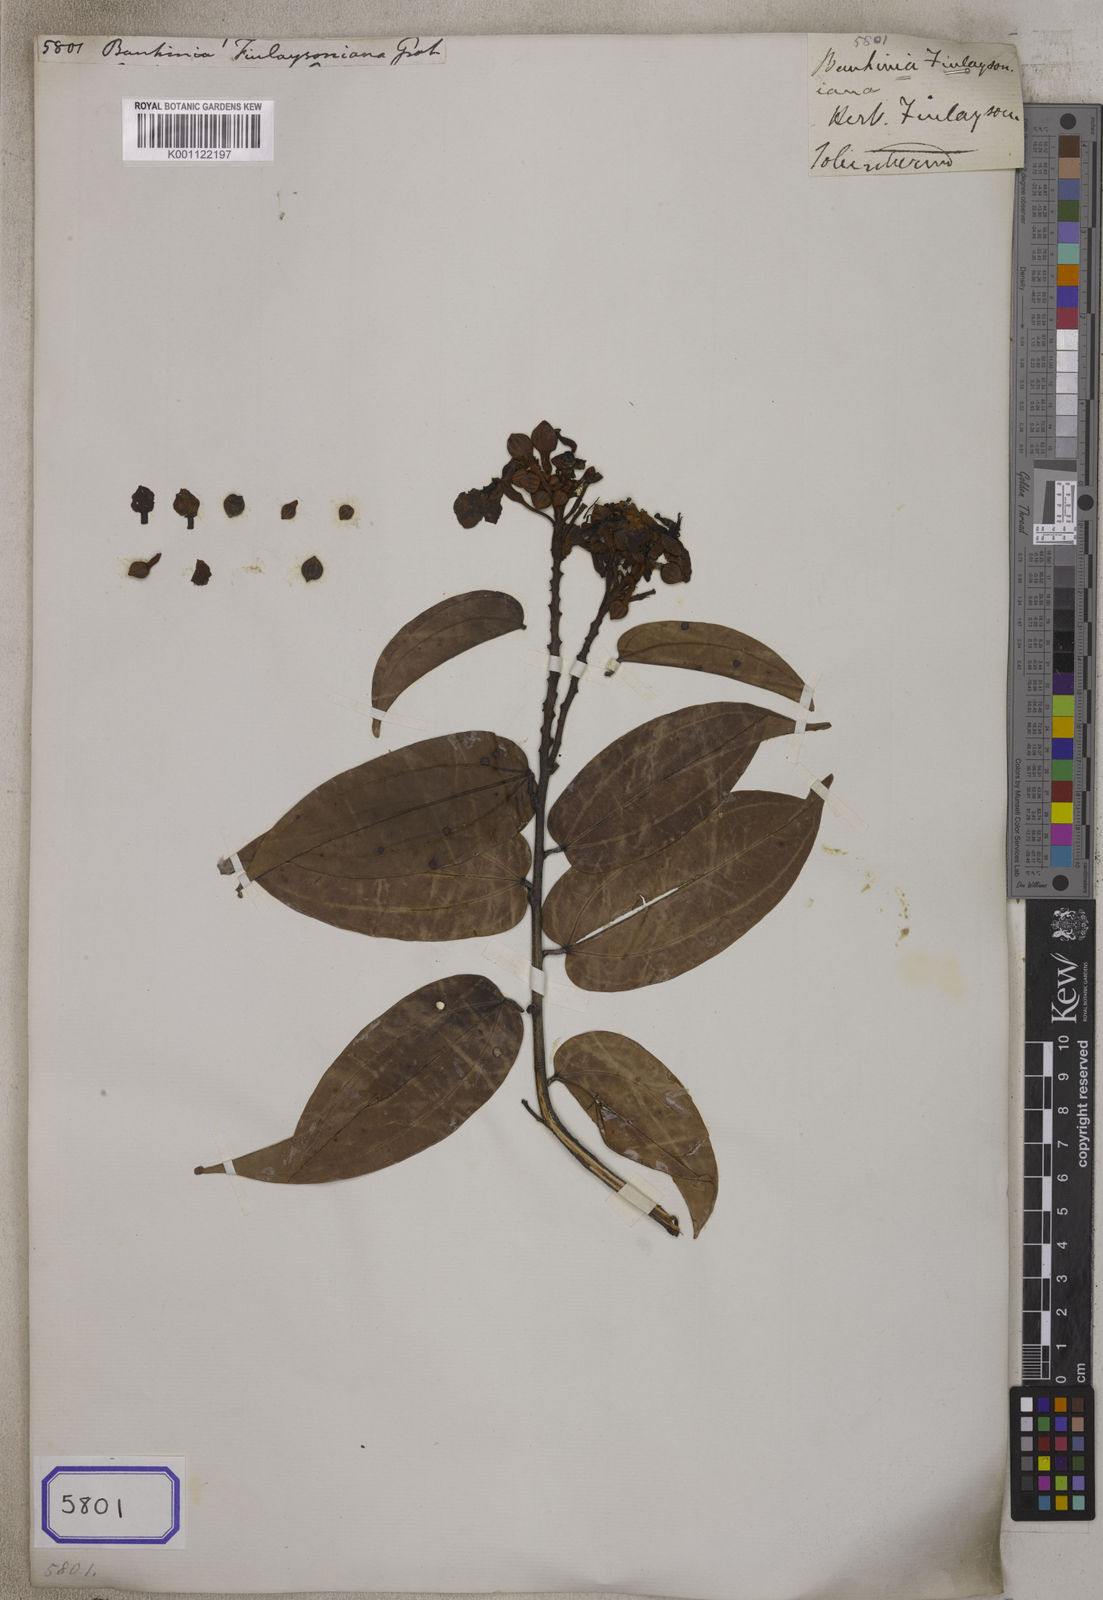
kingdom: Plantae
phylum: Tracheophyta
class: Magnoliopsida
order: Fabales
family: Fabaceae
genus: Bauhinia
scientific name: Bauhinia
